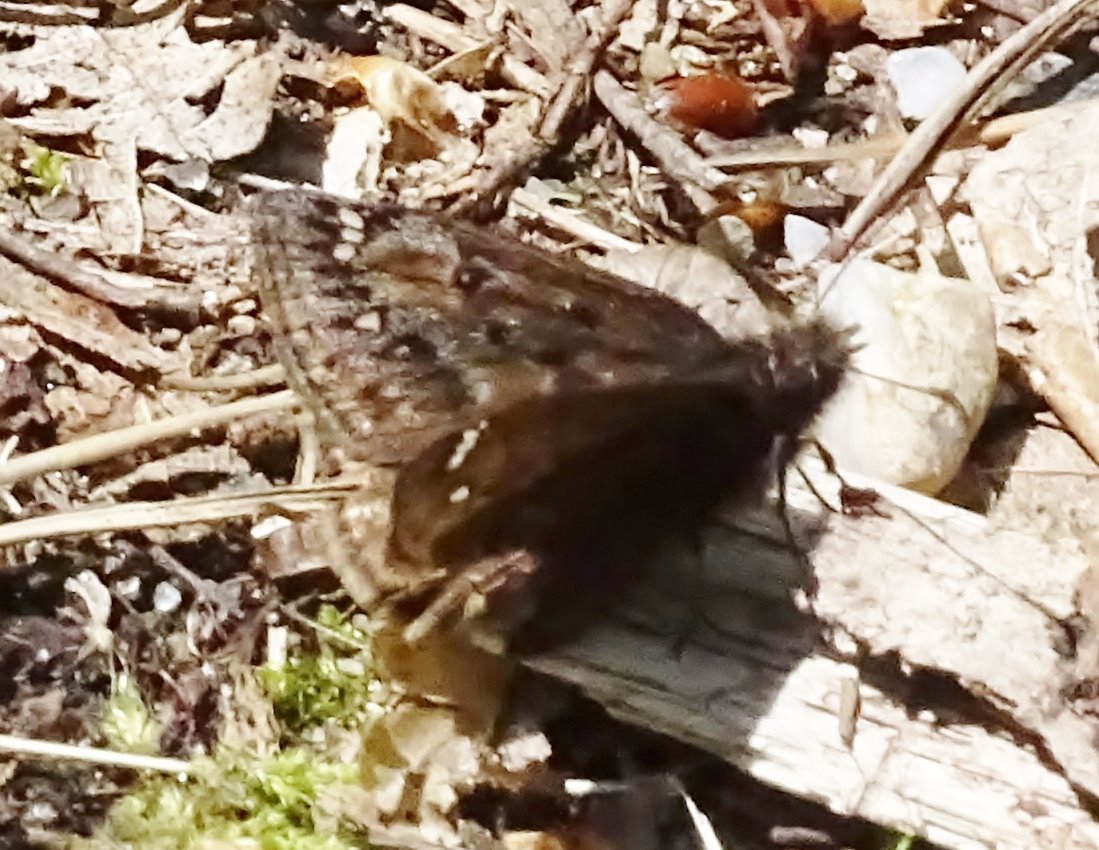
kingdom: Animalia
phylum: Arthropoda
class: Insecta
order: Lepidoptera
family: Hesperiidae
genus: Gesta
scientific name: Gesta
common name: Juvenal's Duskywing
